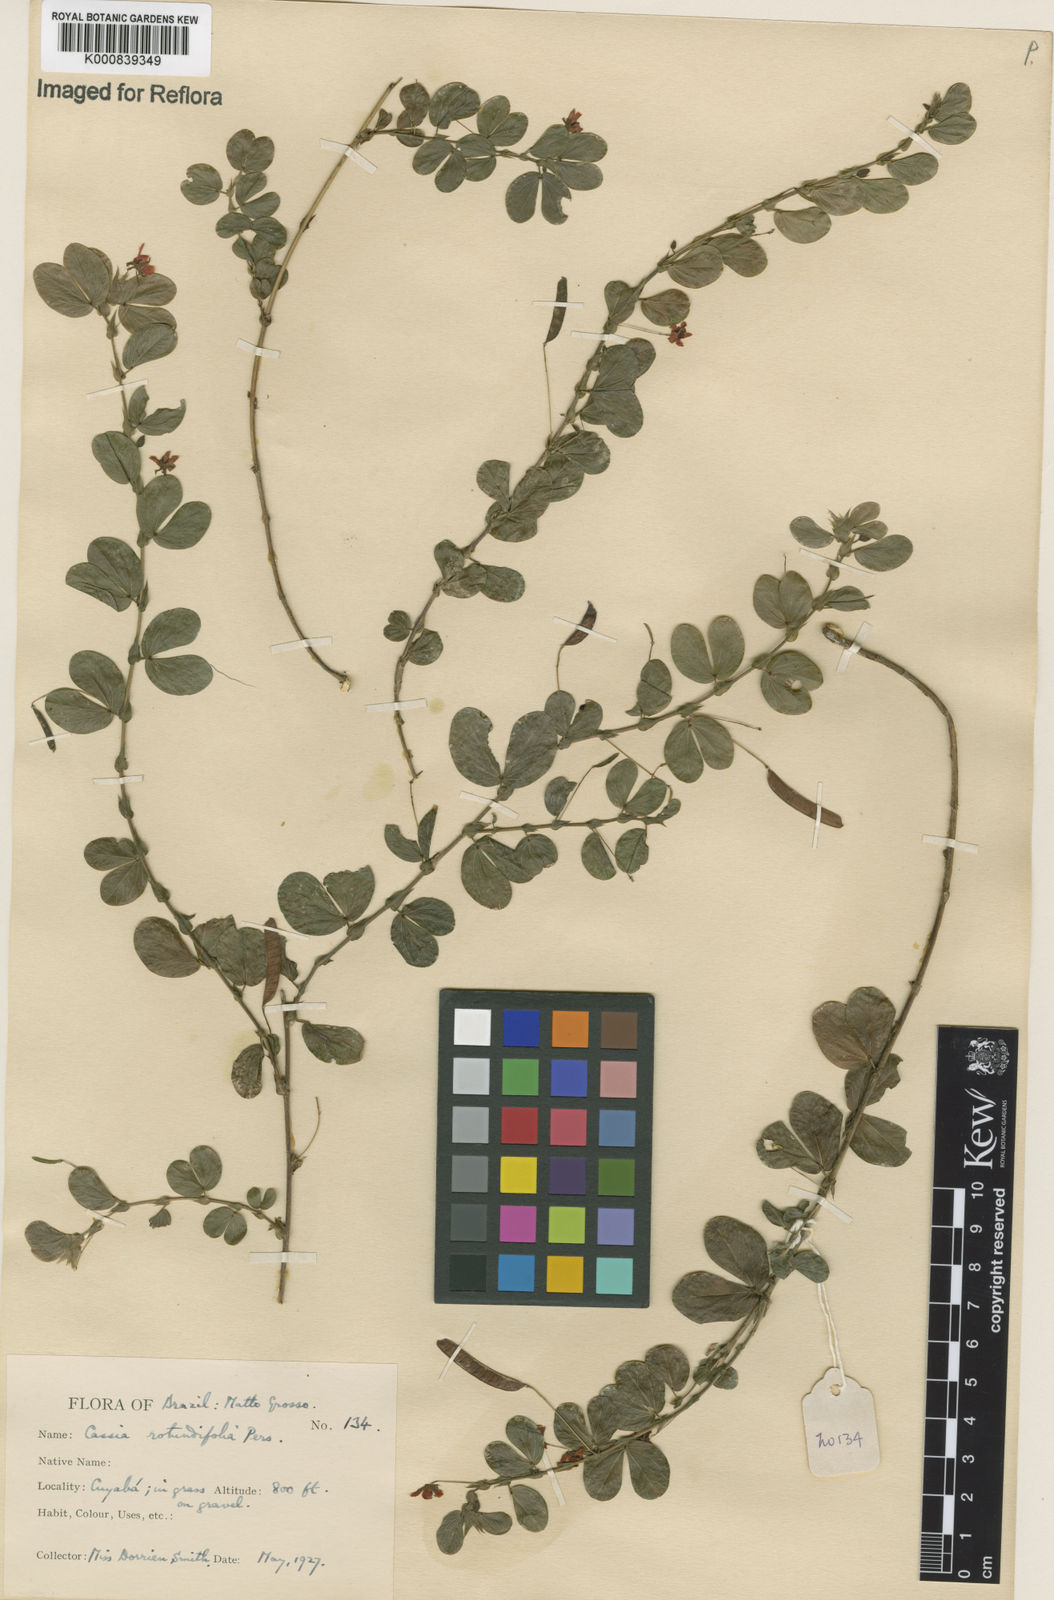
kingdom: Plantae
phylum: Tracheophyta
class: Magnoliopsida
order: Fabales
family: Fabaceae
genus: Chamaecrista
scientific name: Chamaecrista rotundifolia
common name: Round-leaf cassia
